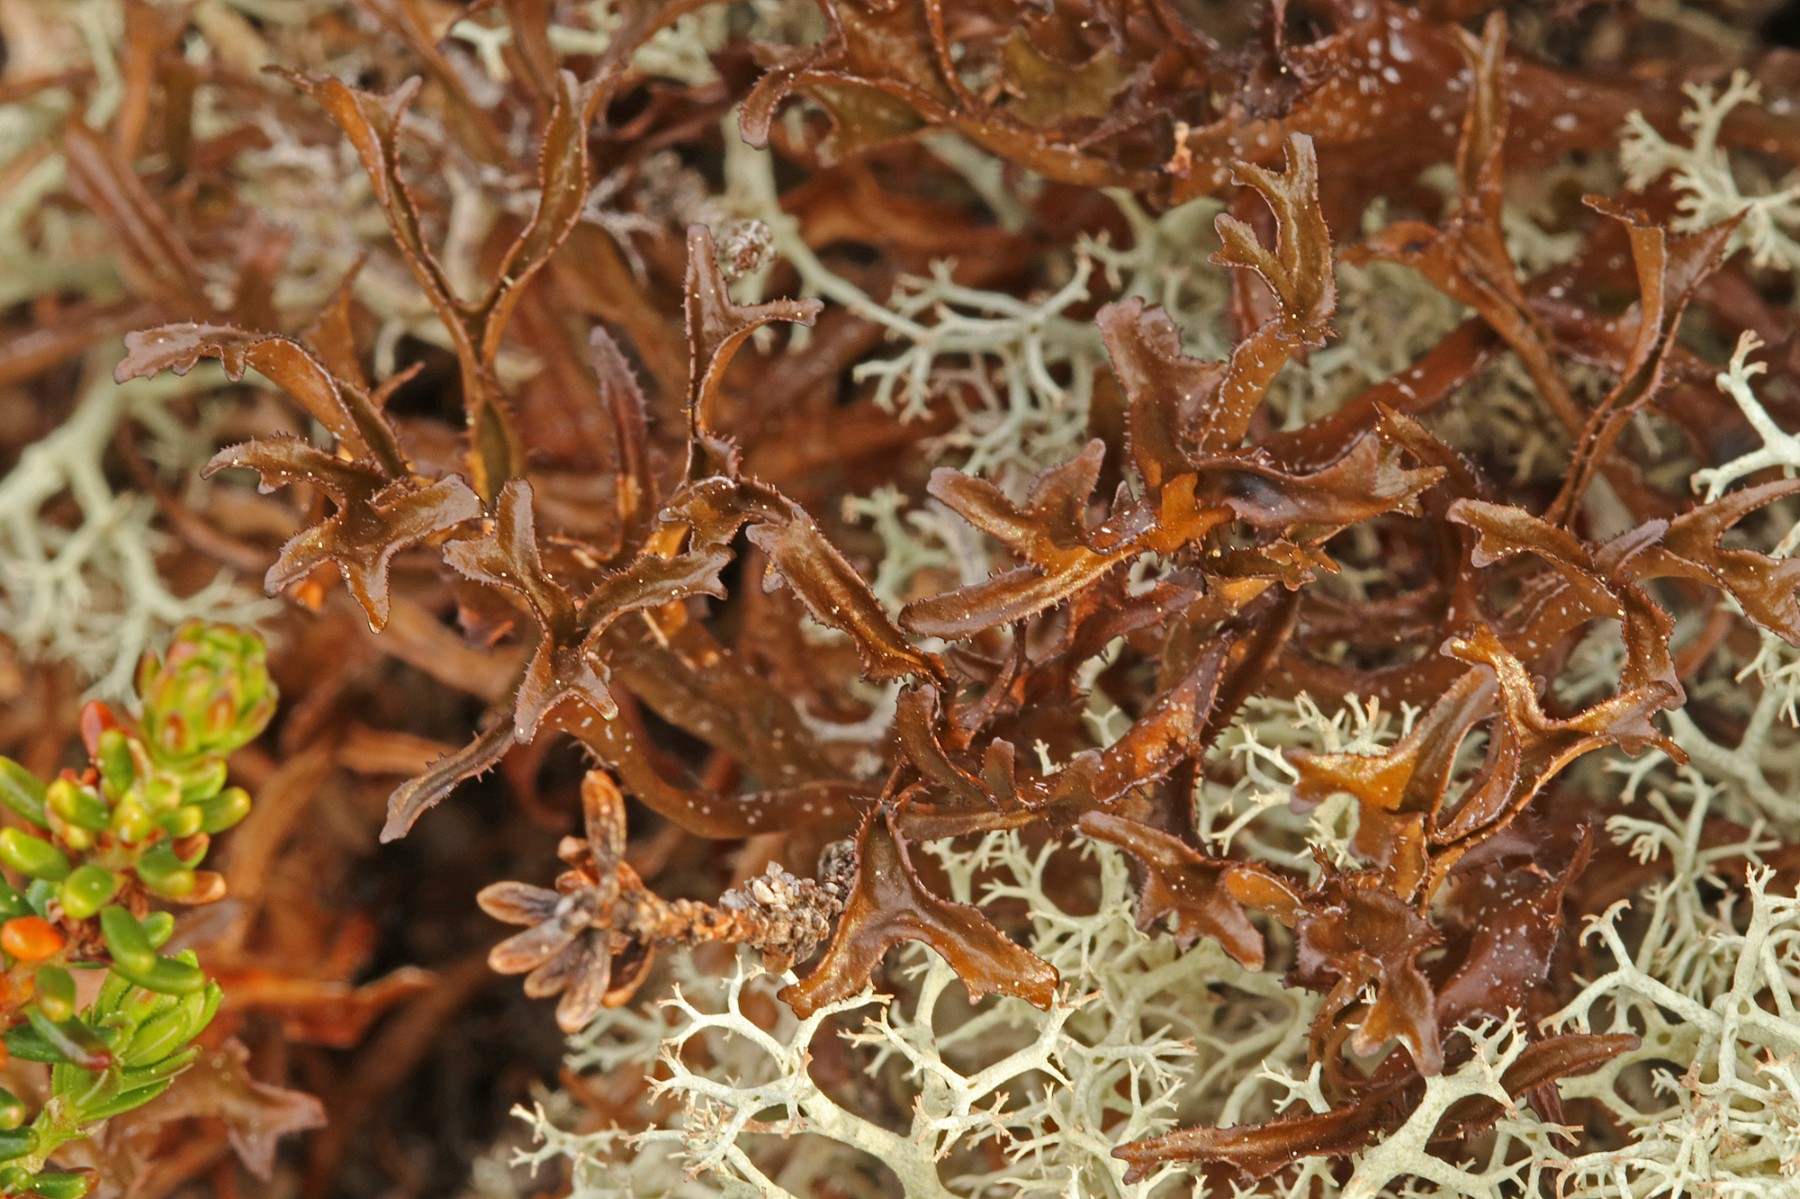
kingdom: Fungi
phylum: Ascomycota
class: Lecanoromycetes
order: Lecanorales
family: Parmeliaceae
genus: Cetraria
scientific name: Cetraria islandica
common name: islandsk kruslav
